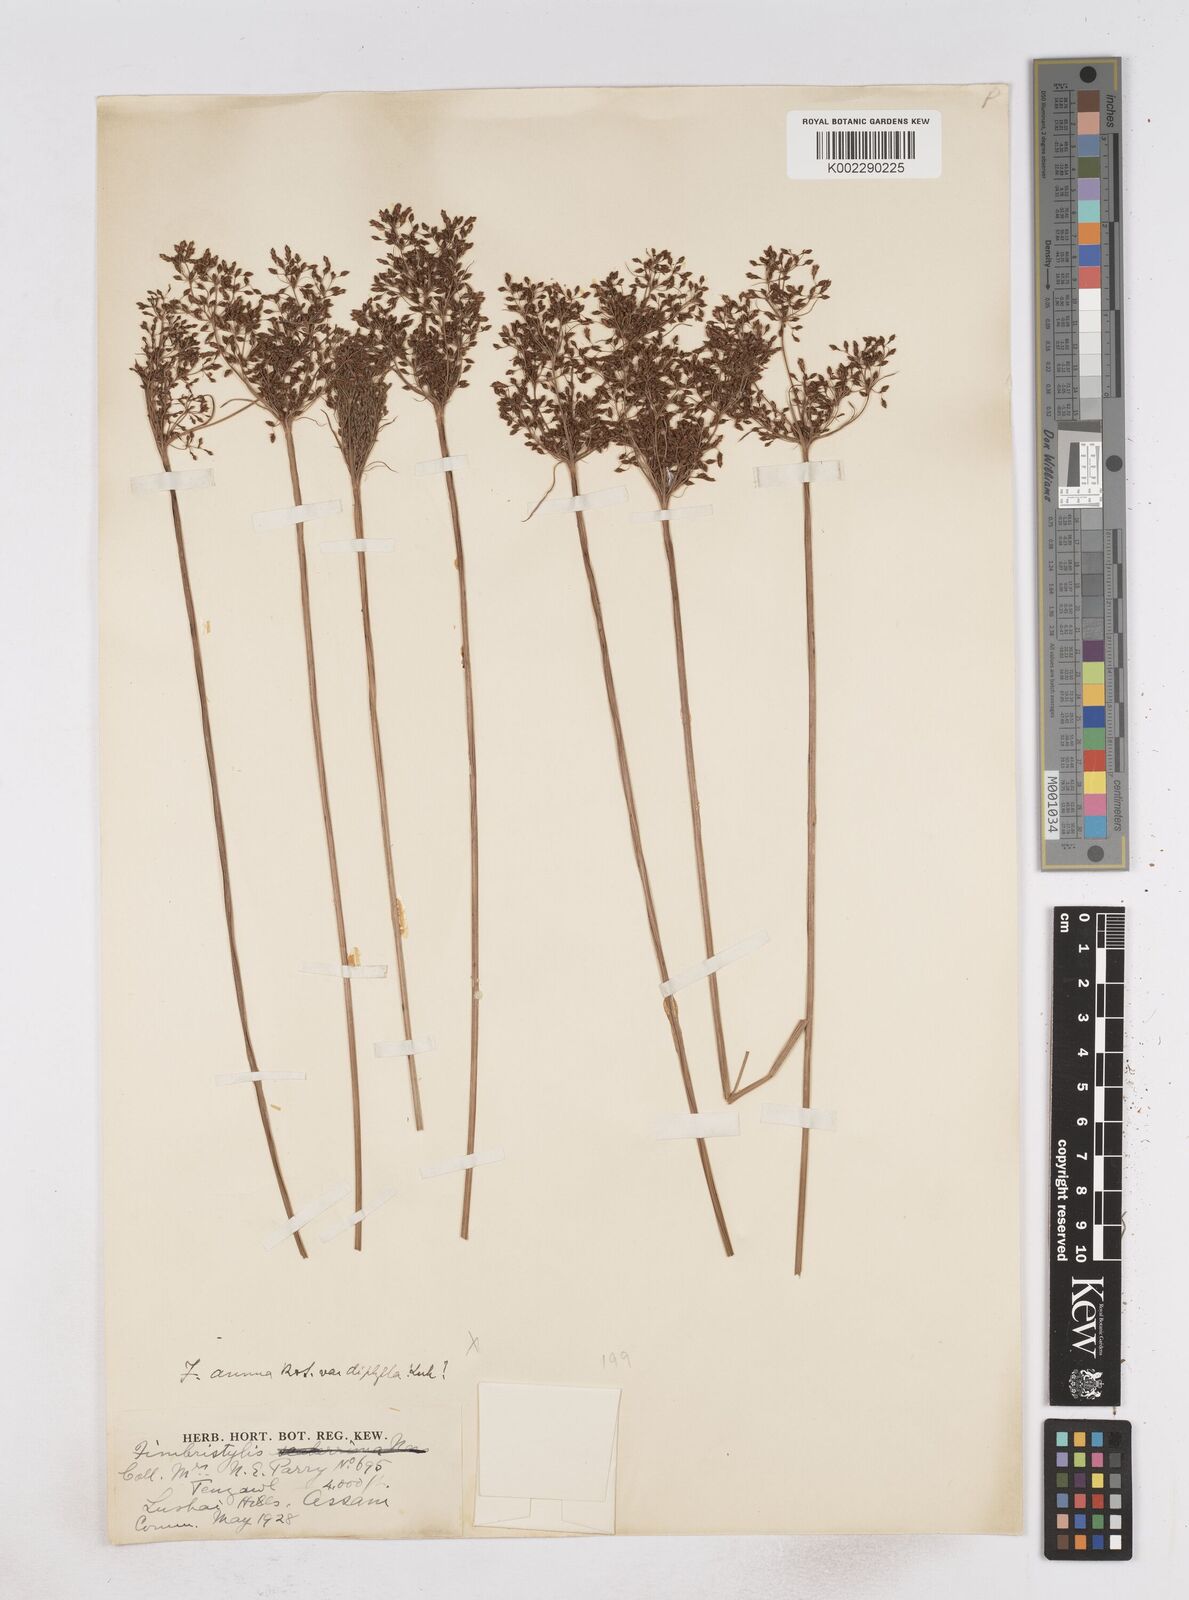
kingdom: Plantae
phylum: Tracheophyta
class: Liliopsida
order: Poales
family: Cyperaceae
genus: Fimbristylis
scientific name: Fimbristylis
